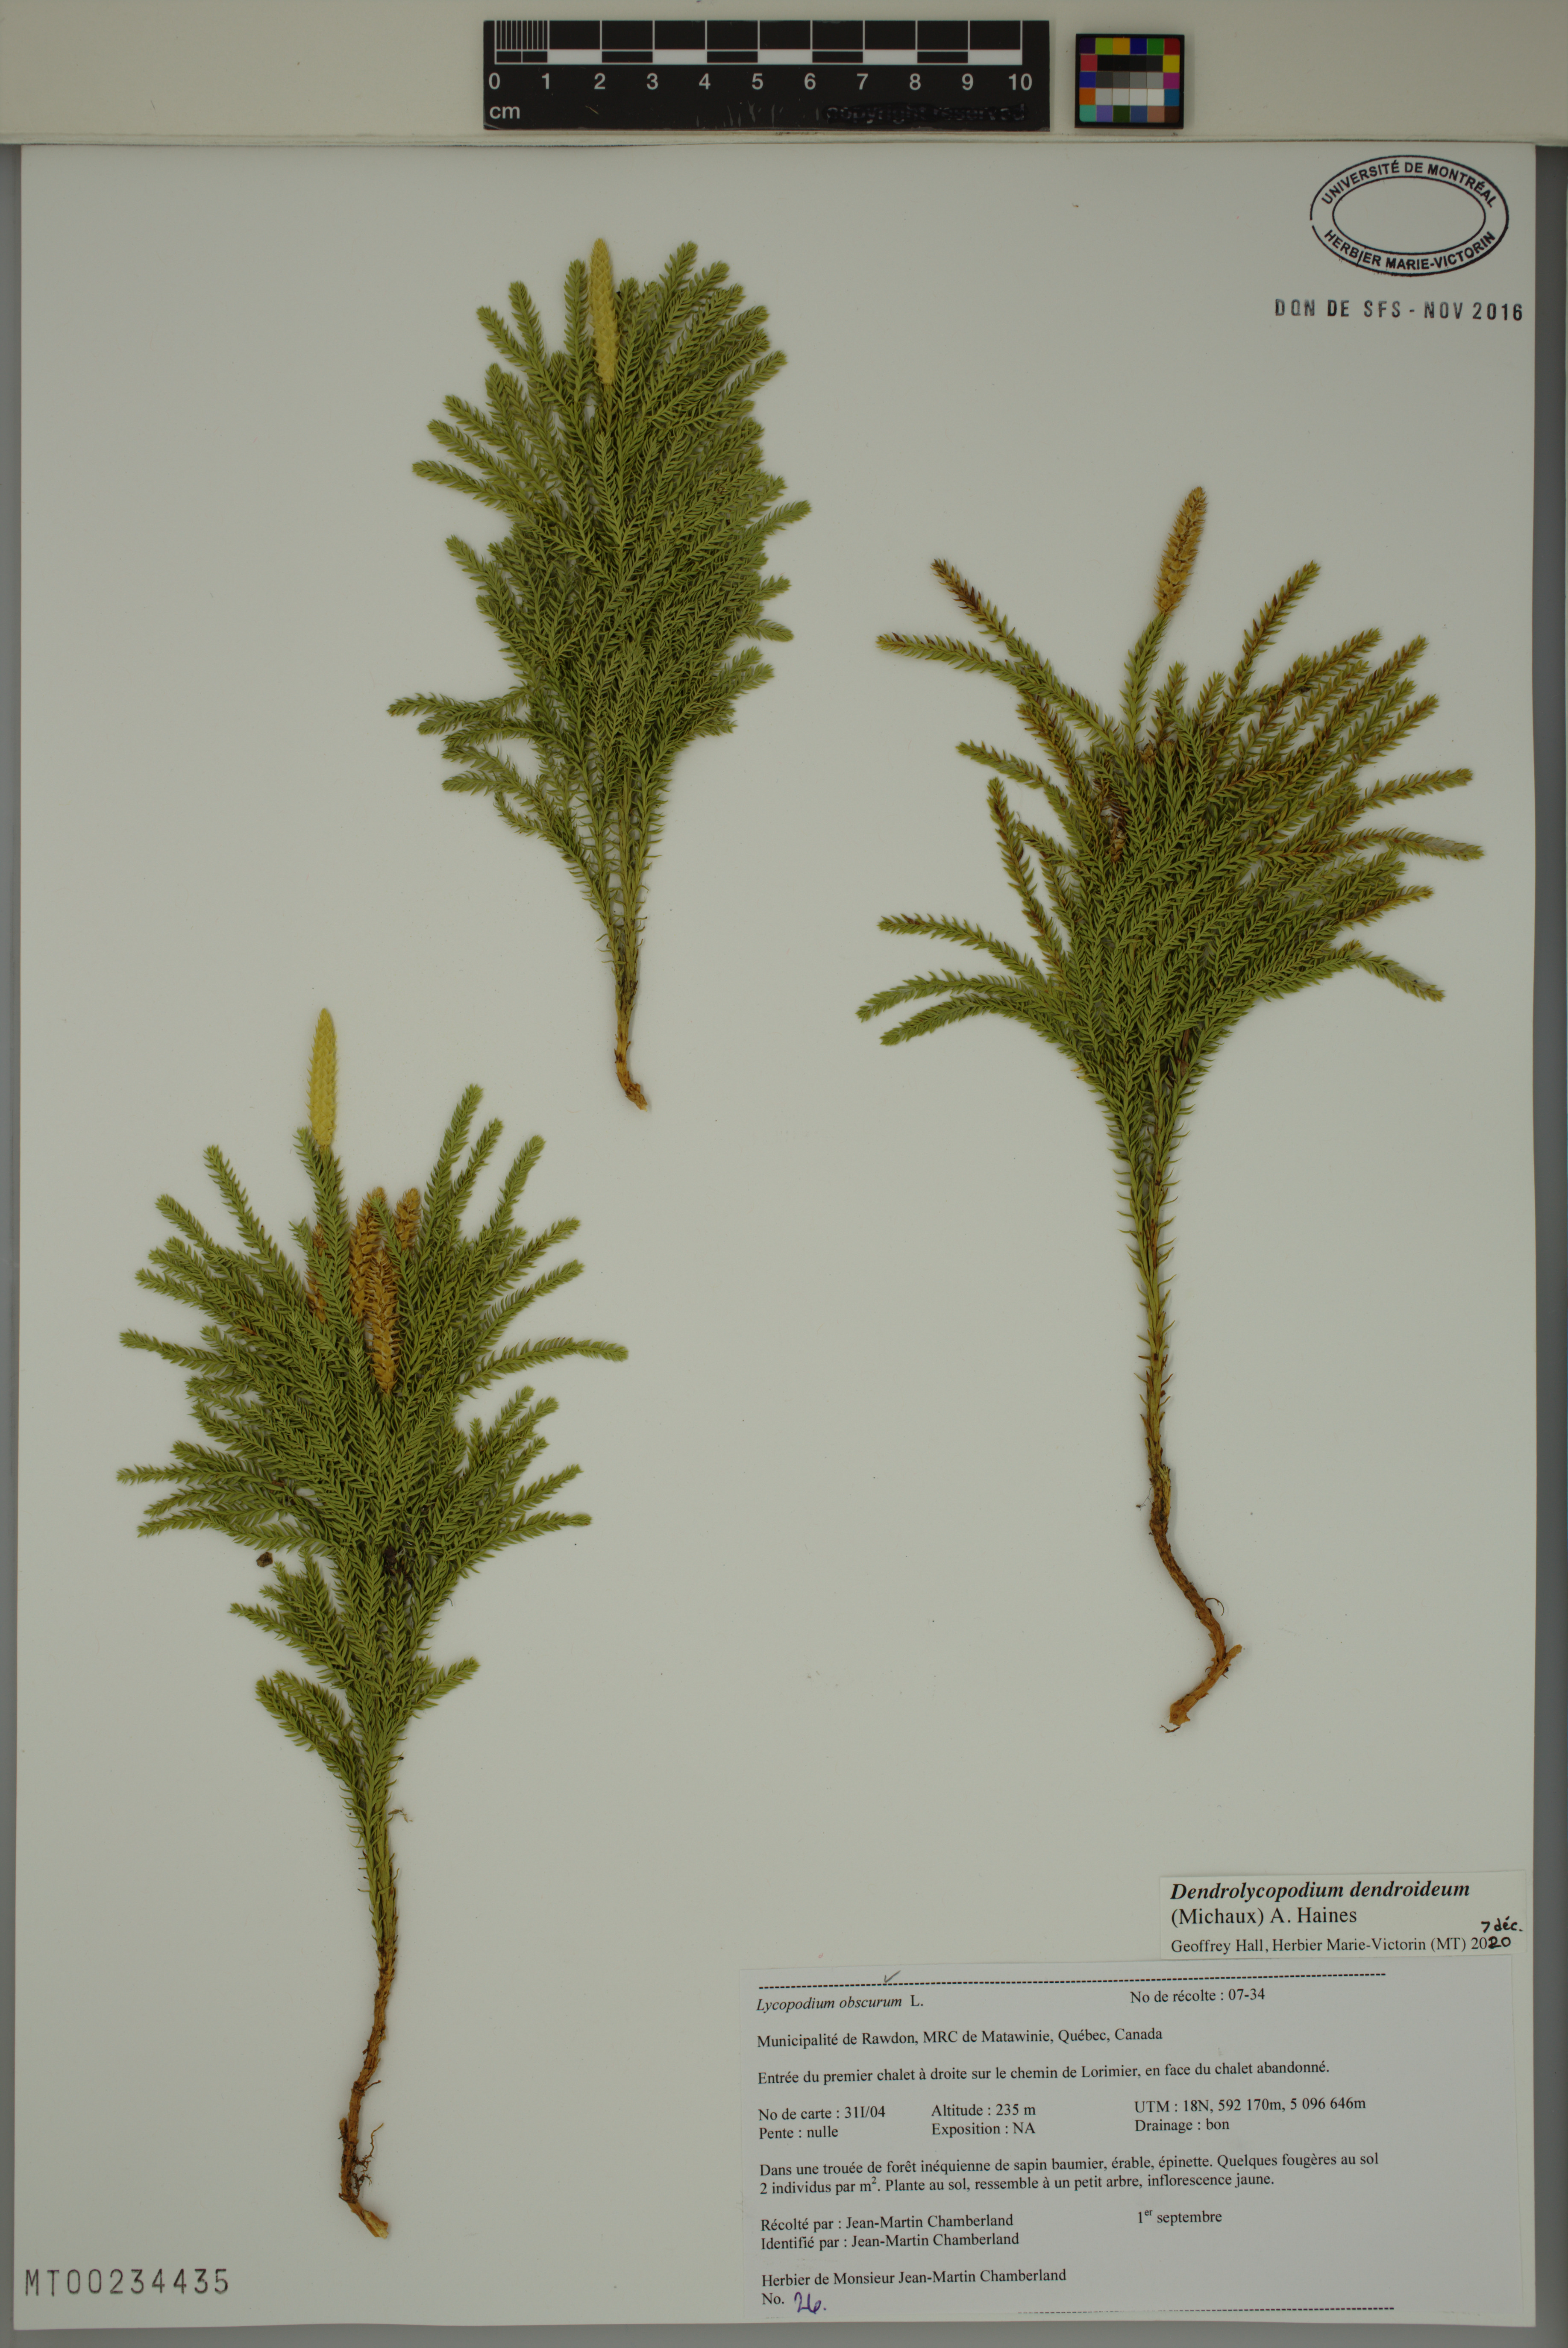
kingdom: Plantae
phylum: Tracheophyta
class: Lycopodiopsida
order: Lycopodiales
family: Lycopodiaceae
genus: Dendrolycopodium
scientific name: Dendrolycopodium dendroideum
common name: Northern tree-clubmoss
